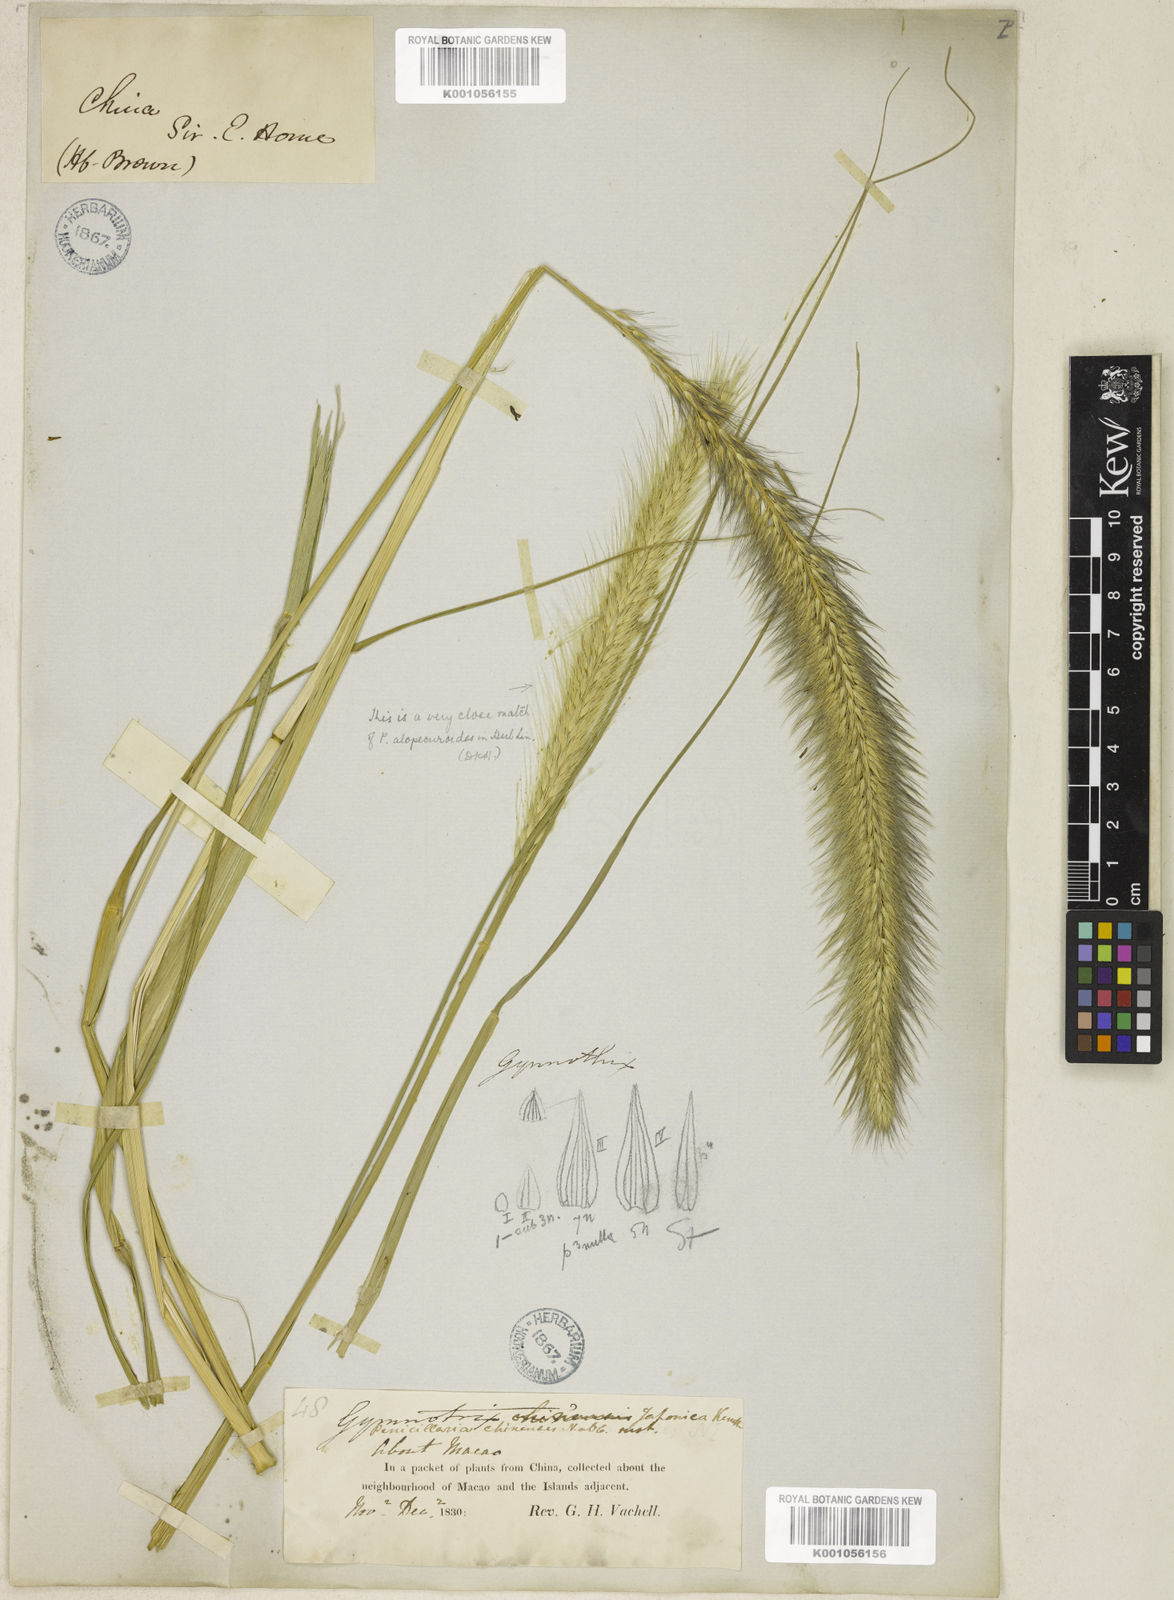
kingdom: Plantae
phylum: Tracheophyta
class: Liliopsida
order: Poales
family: Poaceae
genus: Cenchrus
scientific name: Cenchrus alopecuroides
